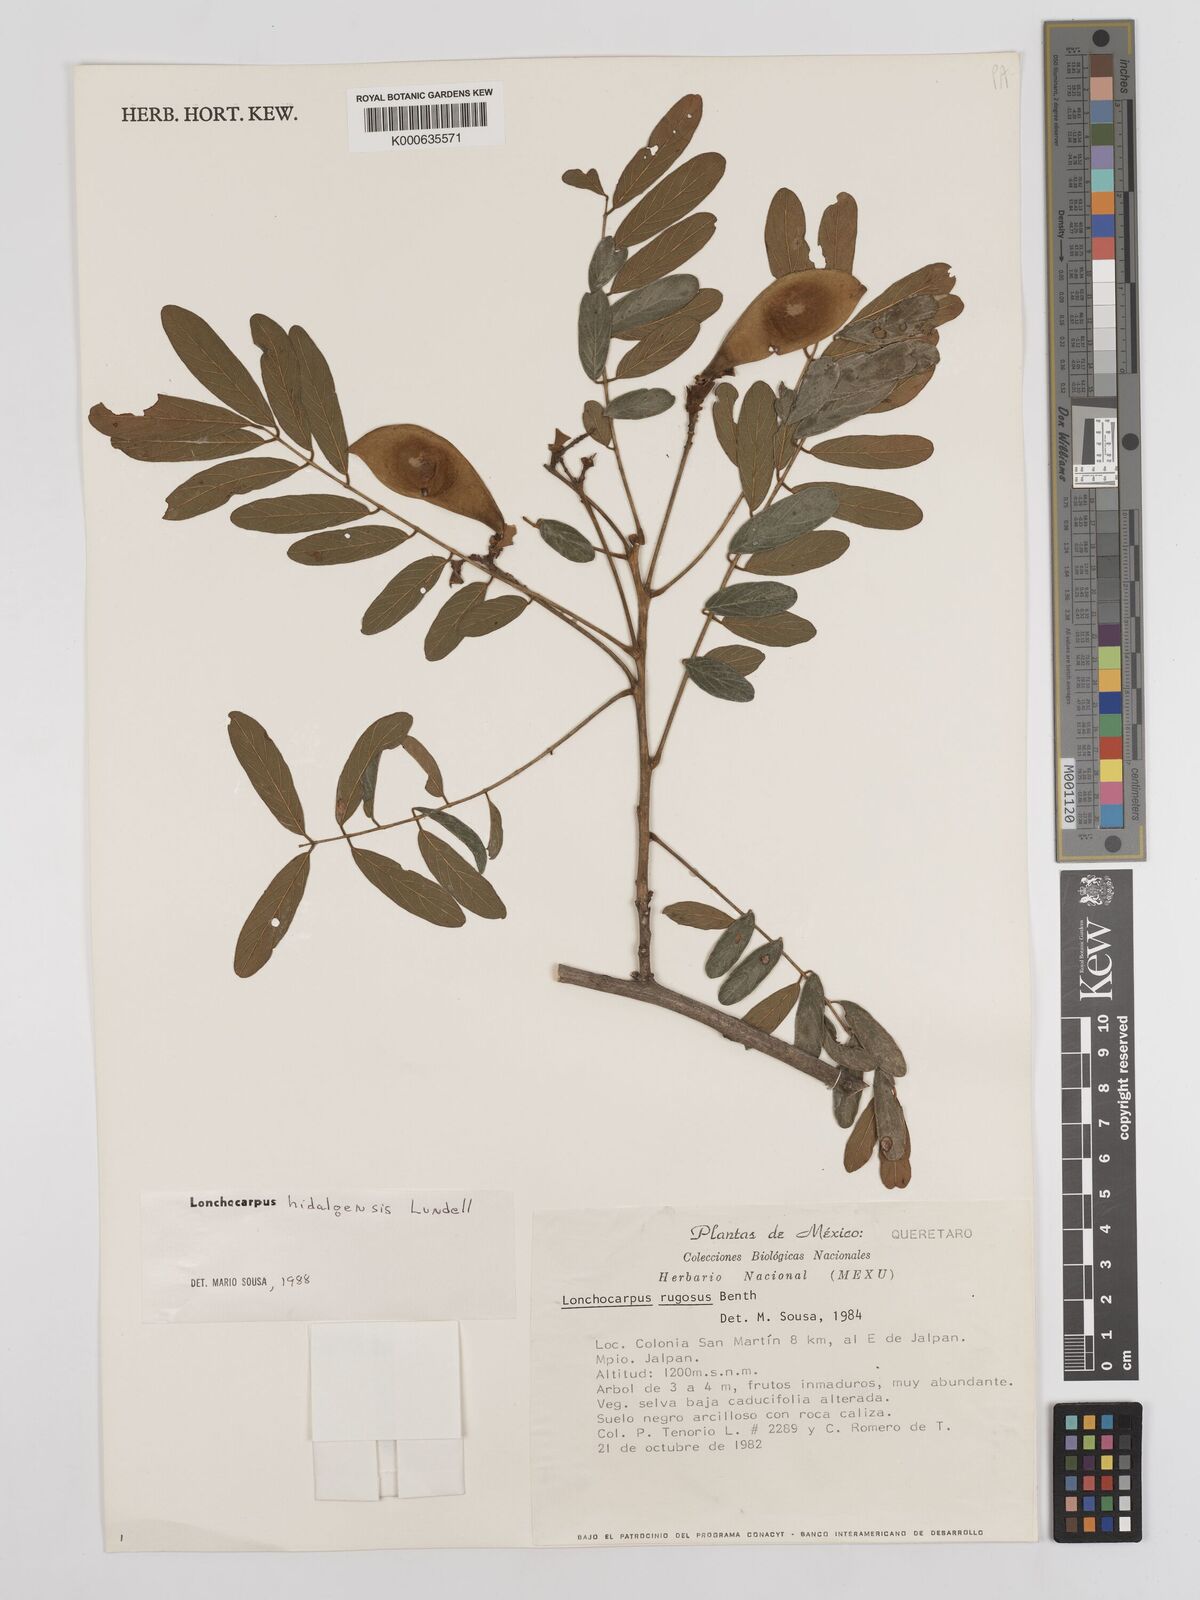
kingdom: Plantae
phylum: Tracheophyta
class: Magnoliopsida
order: Fabales
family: Fabaceae
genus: Lonchocarpus
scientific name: Lonchocarpus hidalgensis
